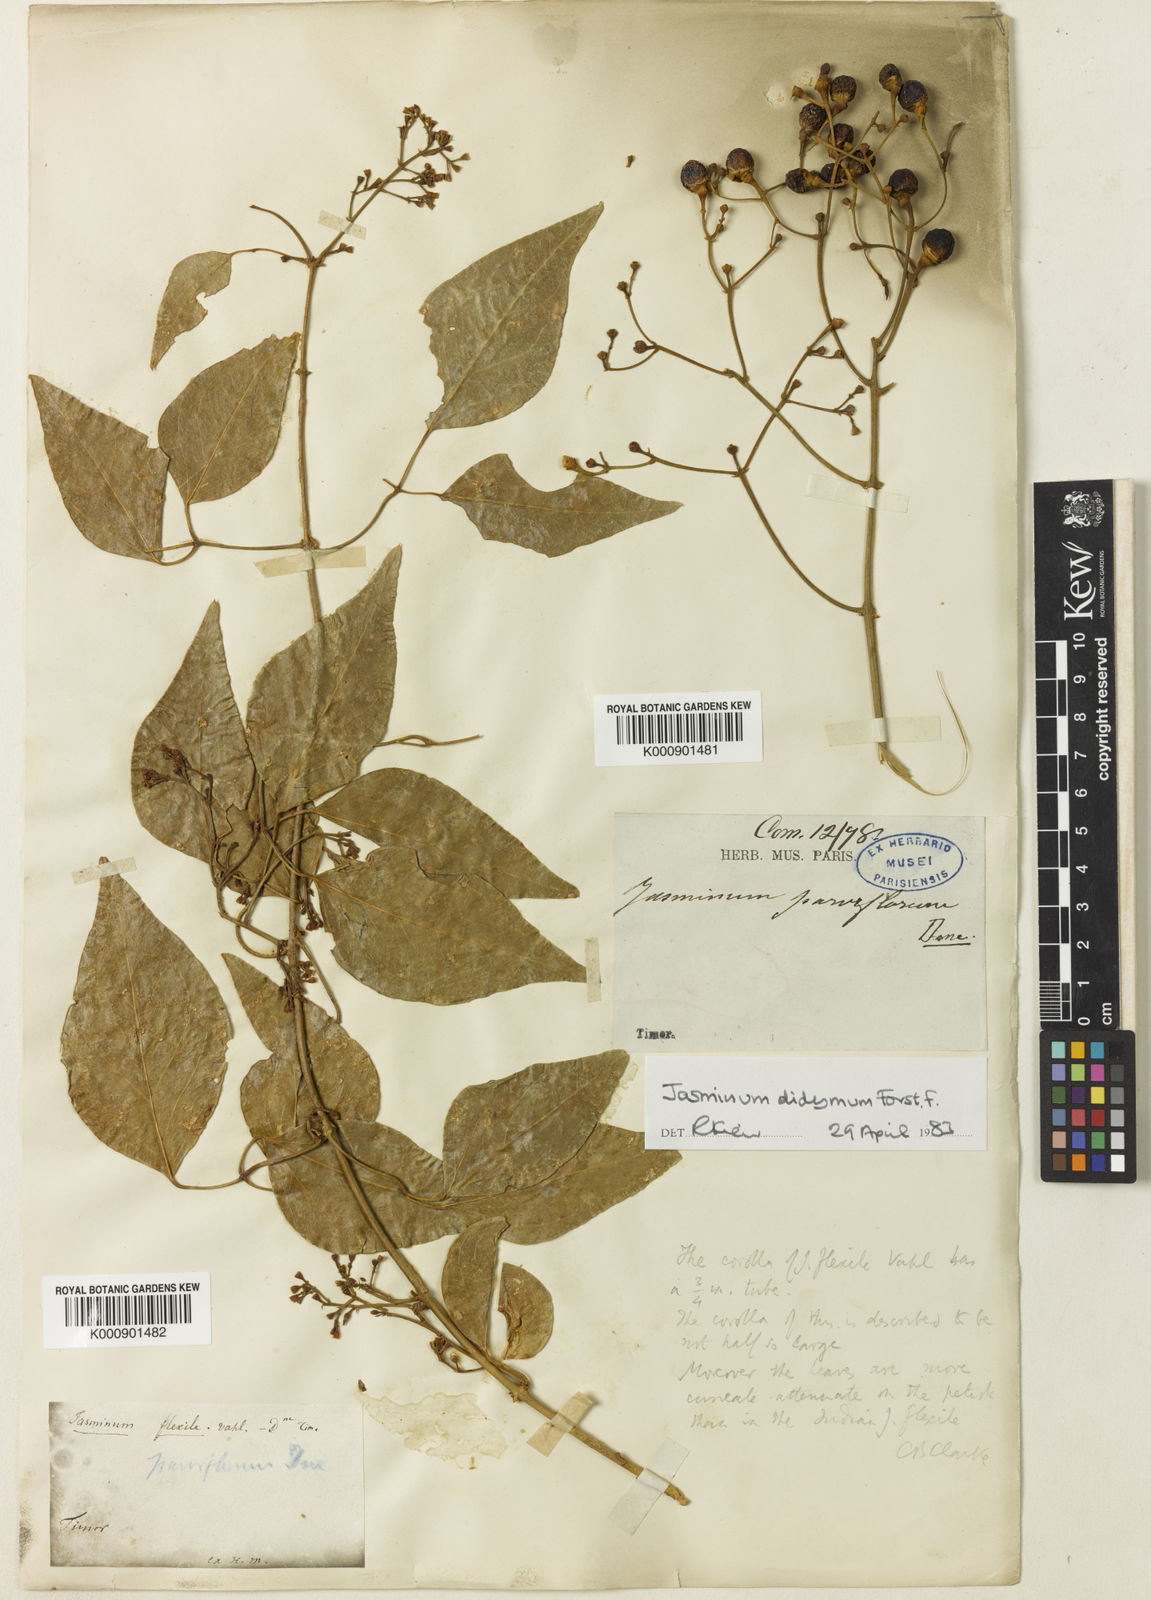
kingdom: Plantae
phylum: Tracheophyta
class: Magnoliopsida
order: Lamiales
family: Oleaceae
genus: Jasminum
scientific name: Jasminum didymum
